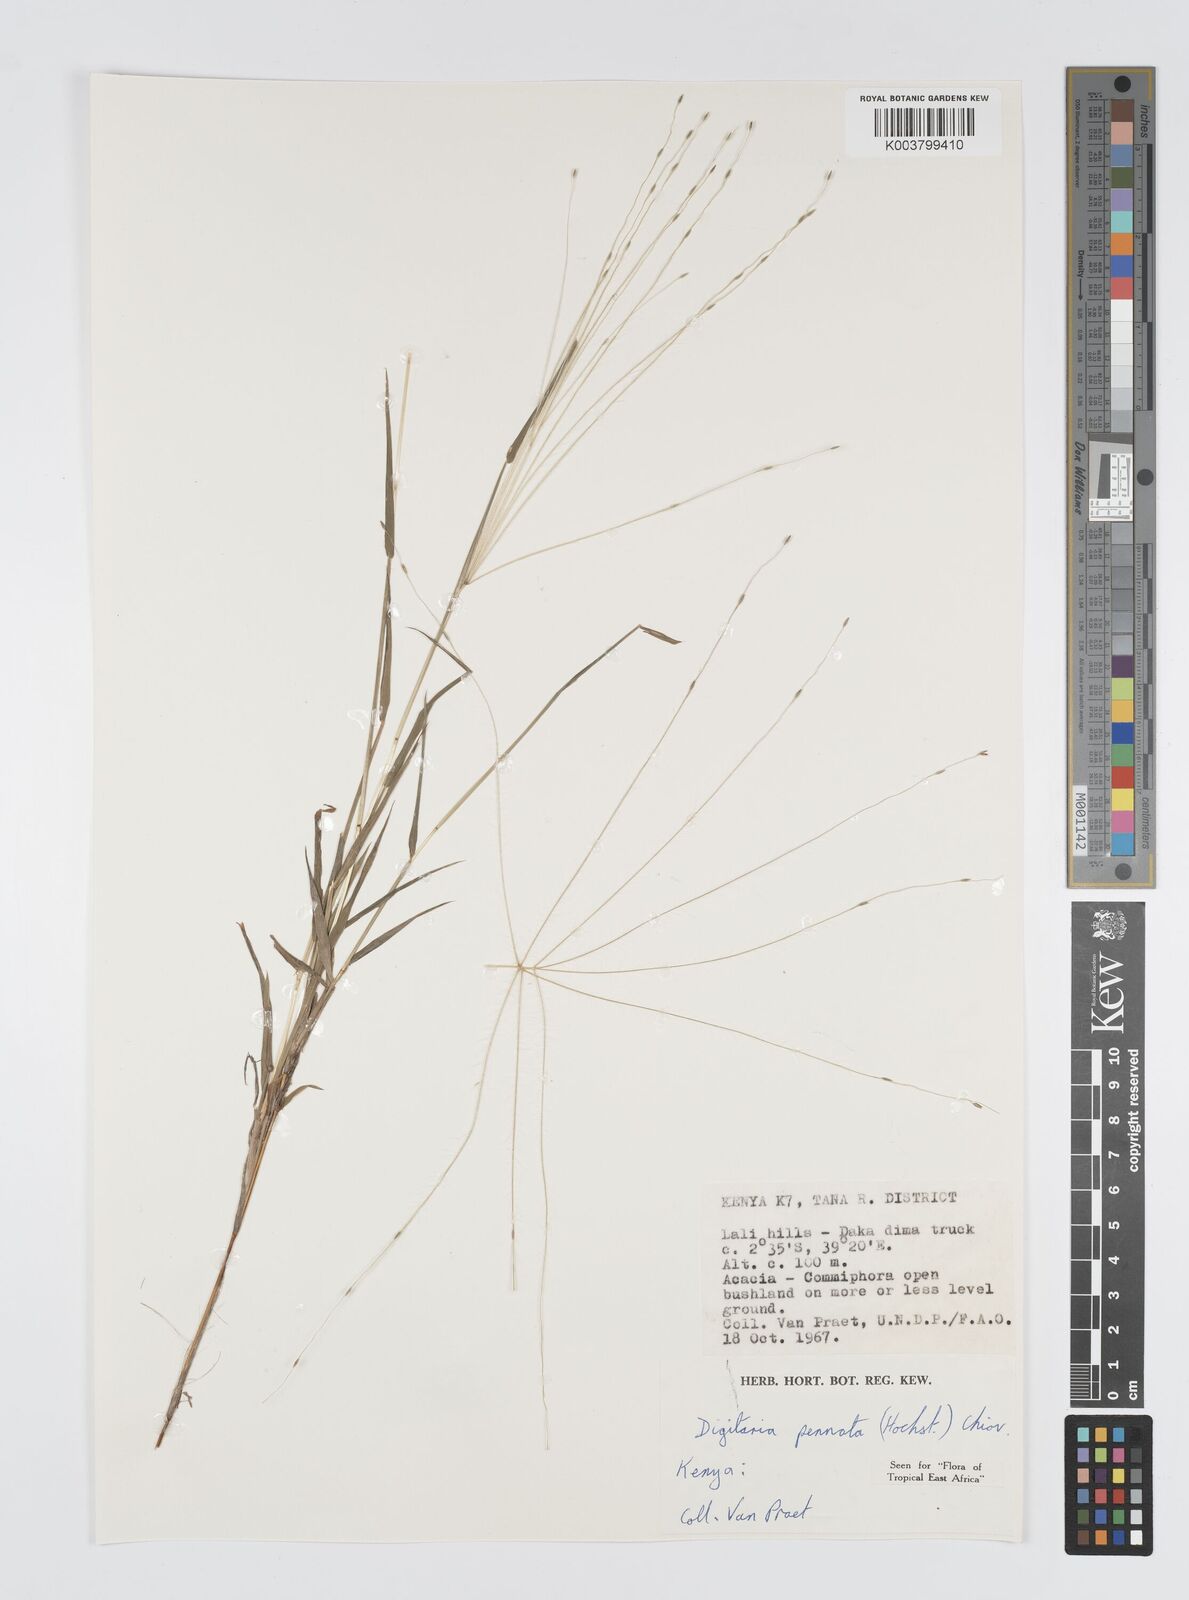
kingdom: Plantae
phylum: Tracheophyta
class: Liliopsida
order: Poales
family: Poaceae
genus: Digitaria
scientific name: Digitaria pennata
